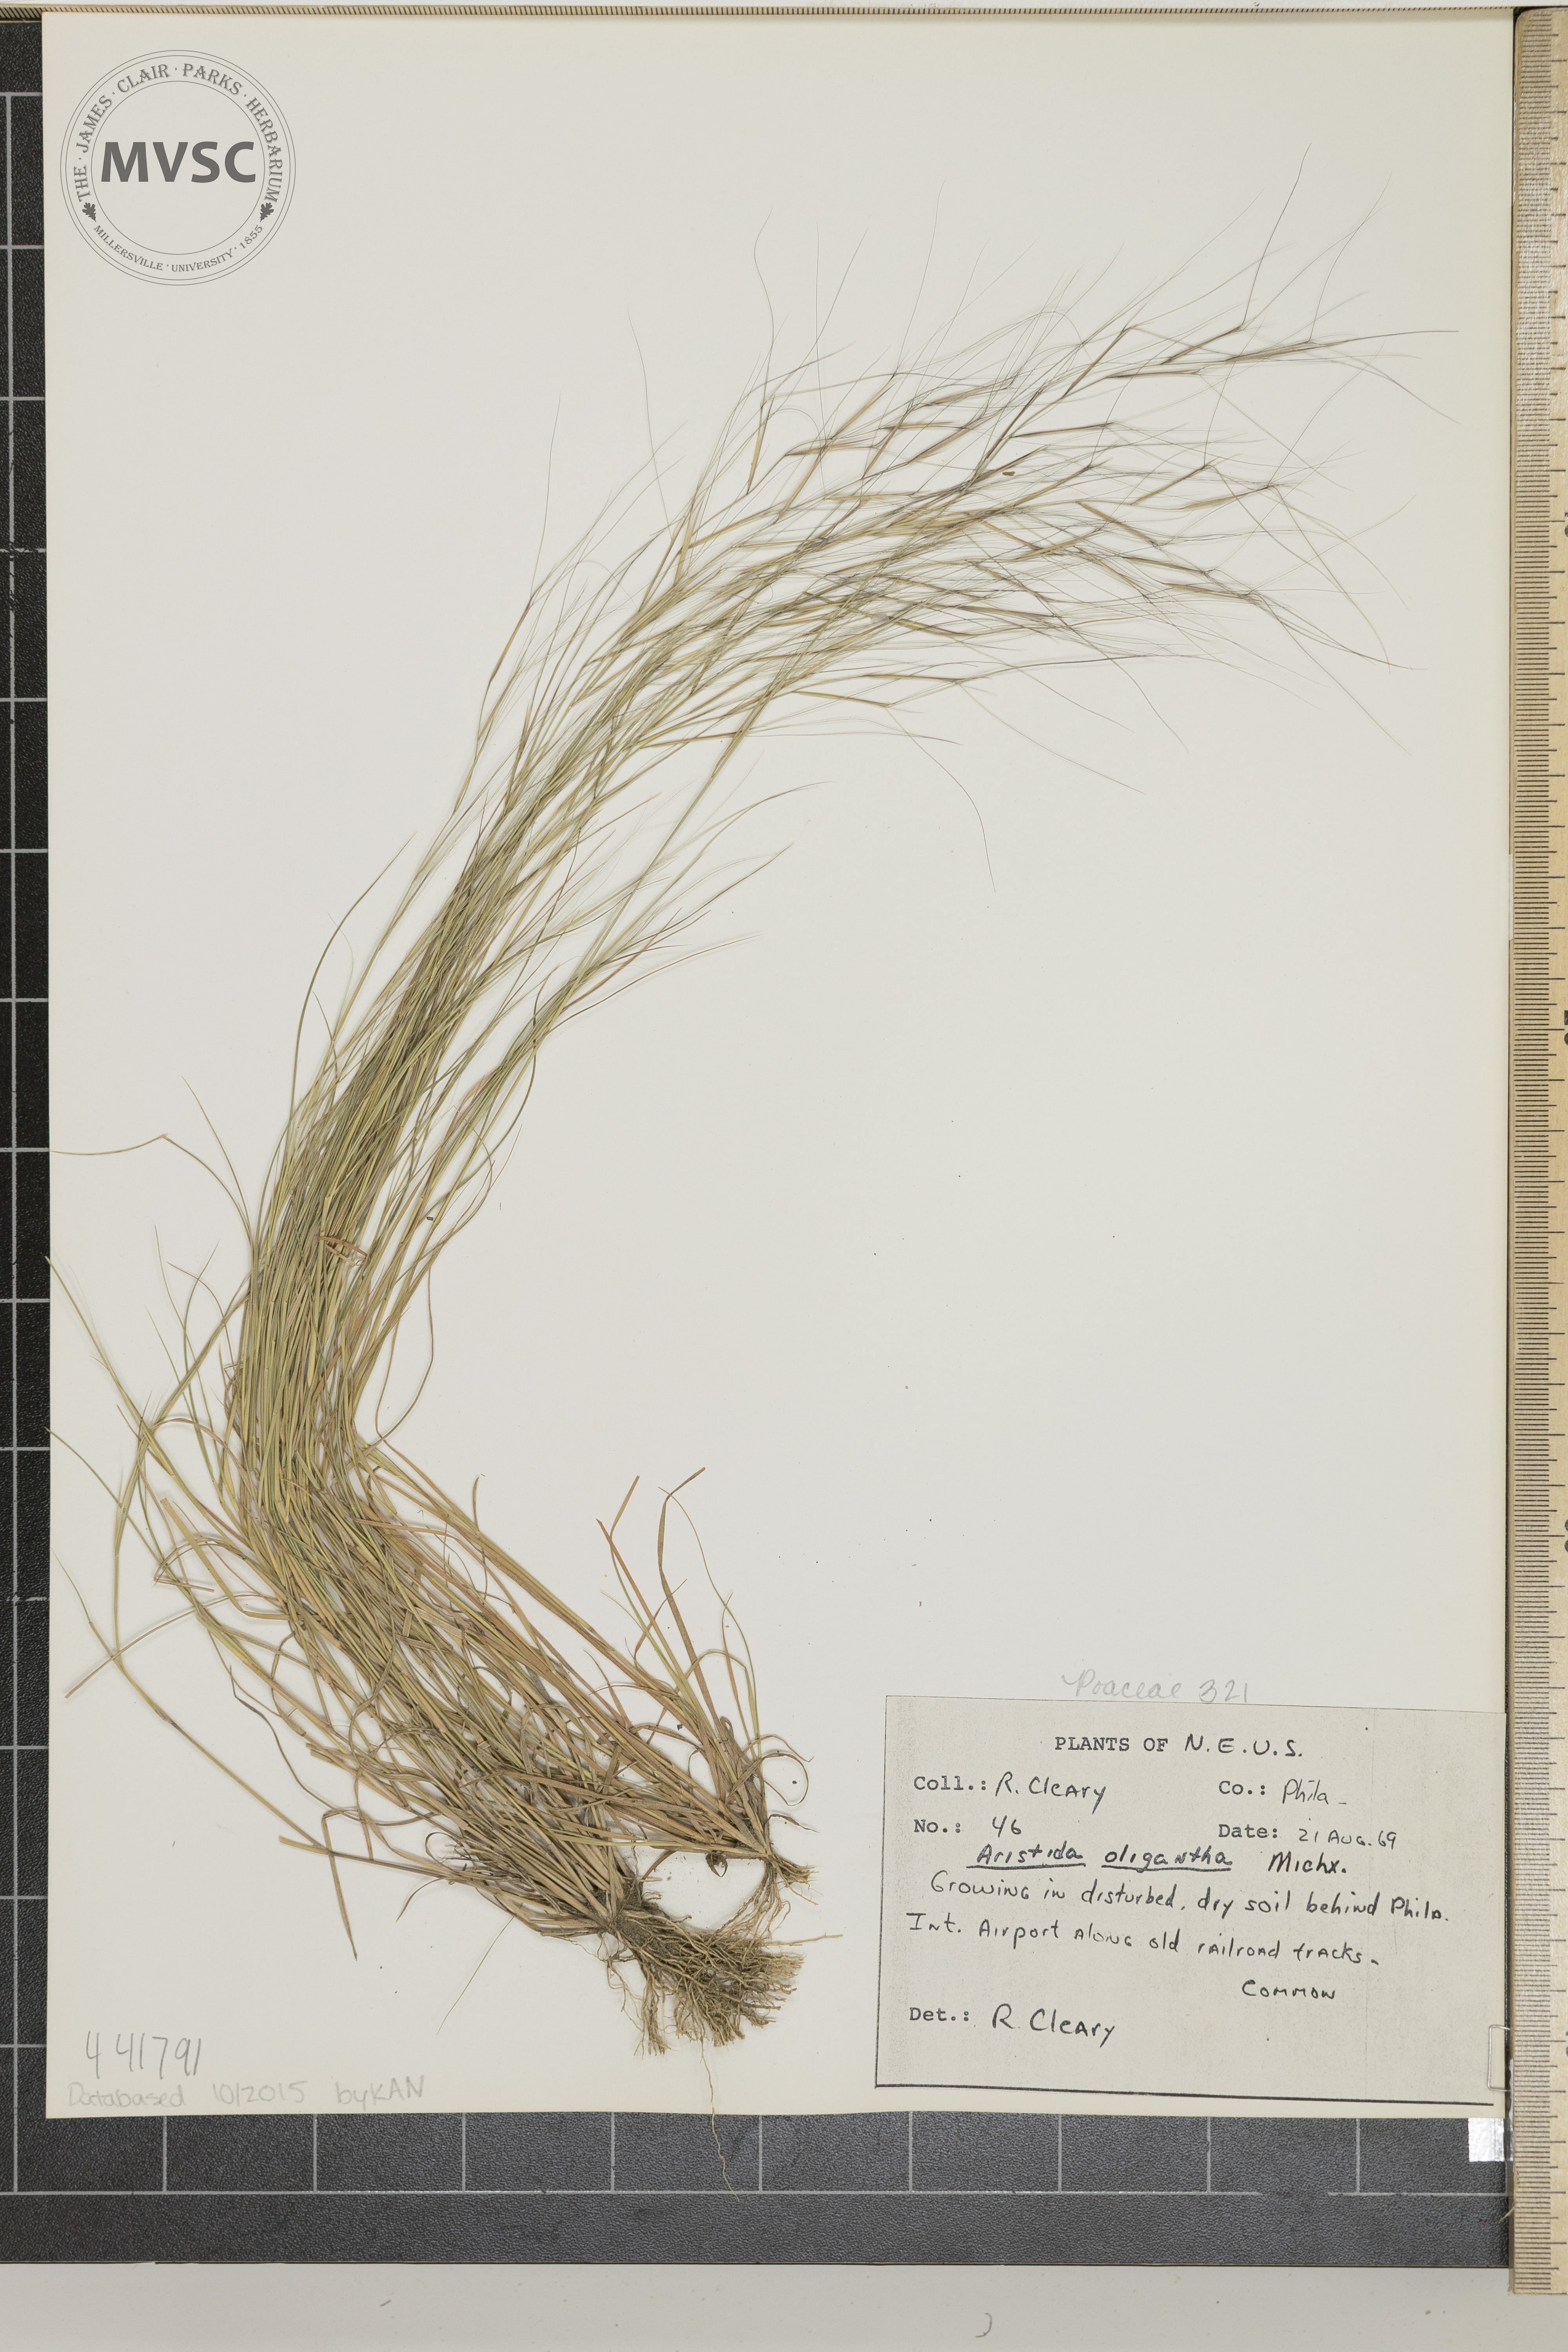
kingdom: Plantae
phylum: Tracheophyta
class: Liliopsida
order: Poales
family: Poaceae
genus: Aristida
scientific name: Aristida oligantha
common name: Few-flowered aristida
